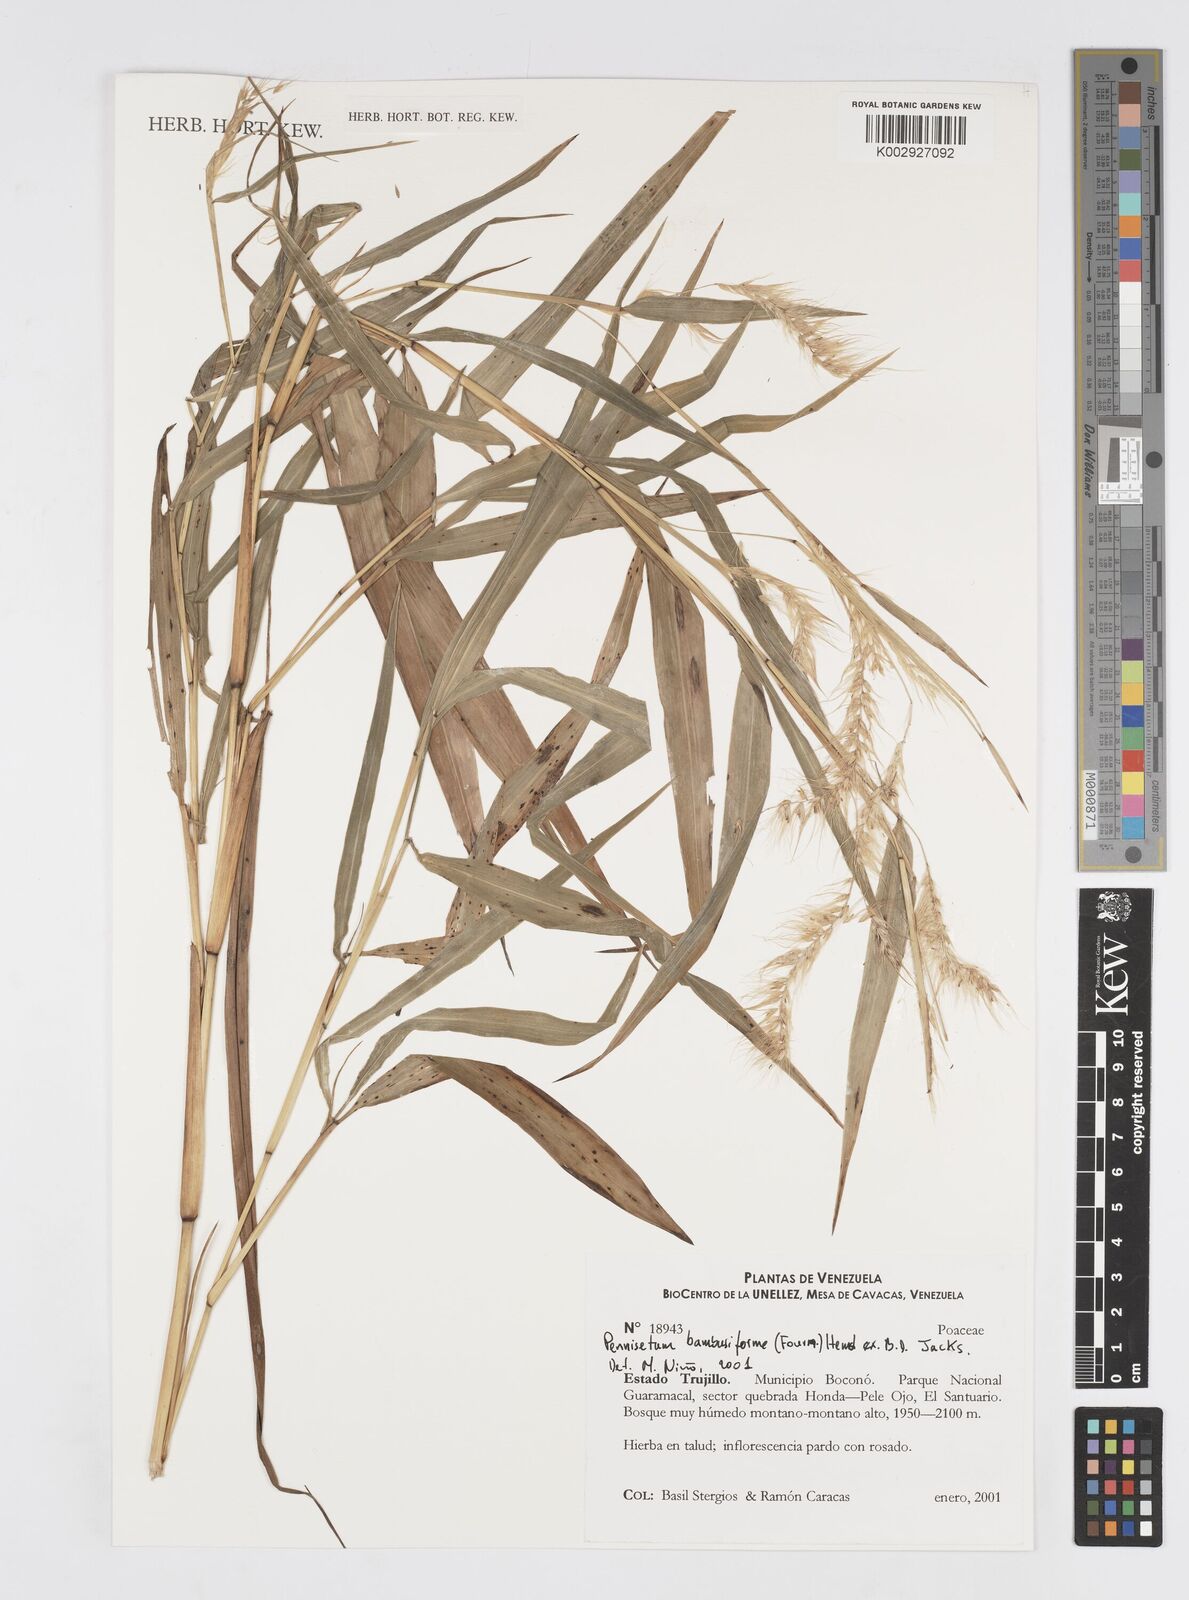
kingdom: Plantae
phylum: Tracheophyta
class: Liliopsida
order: Poales
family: Poaceae
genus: Cenchrus
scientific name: Cenchrus tristachyus
